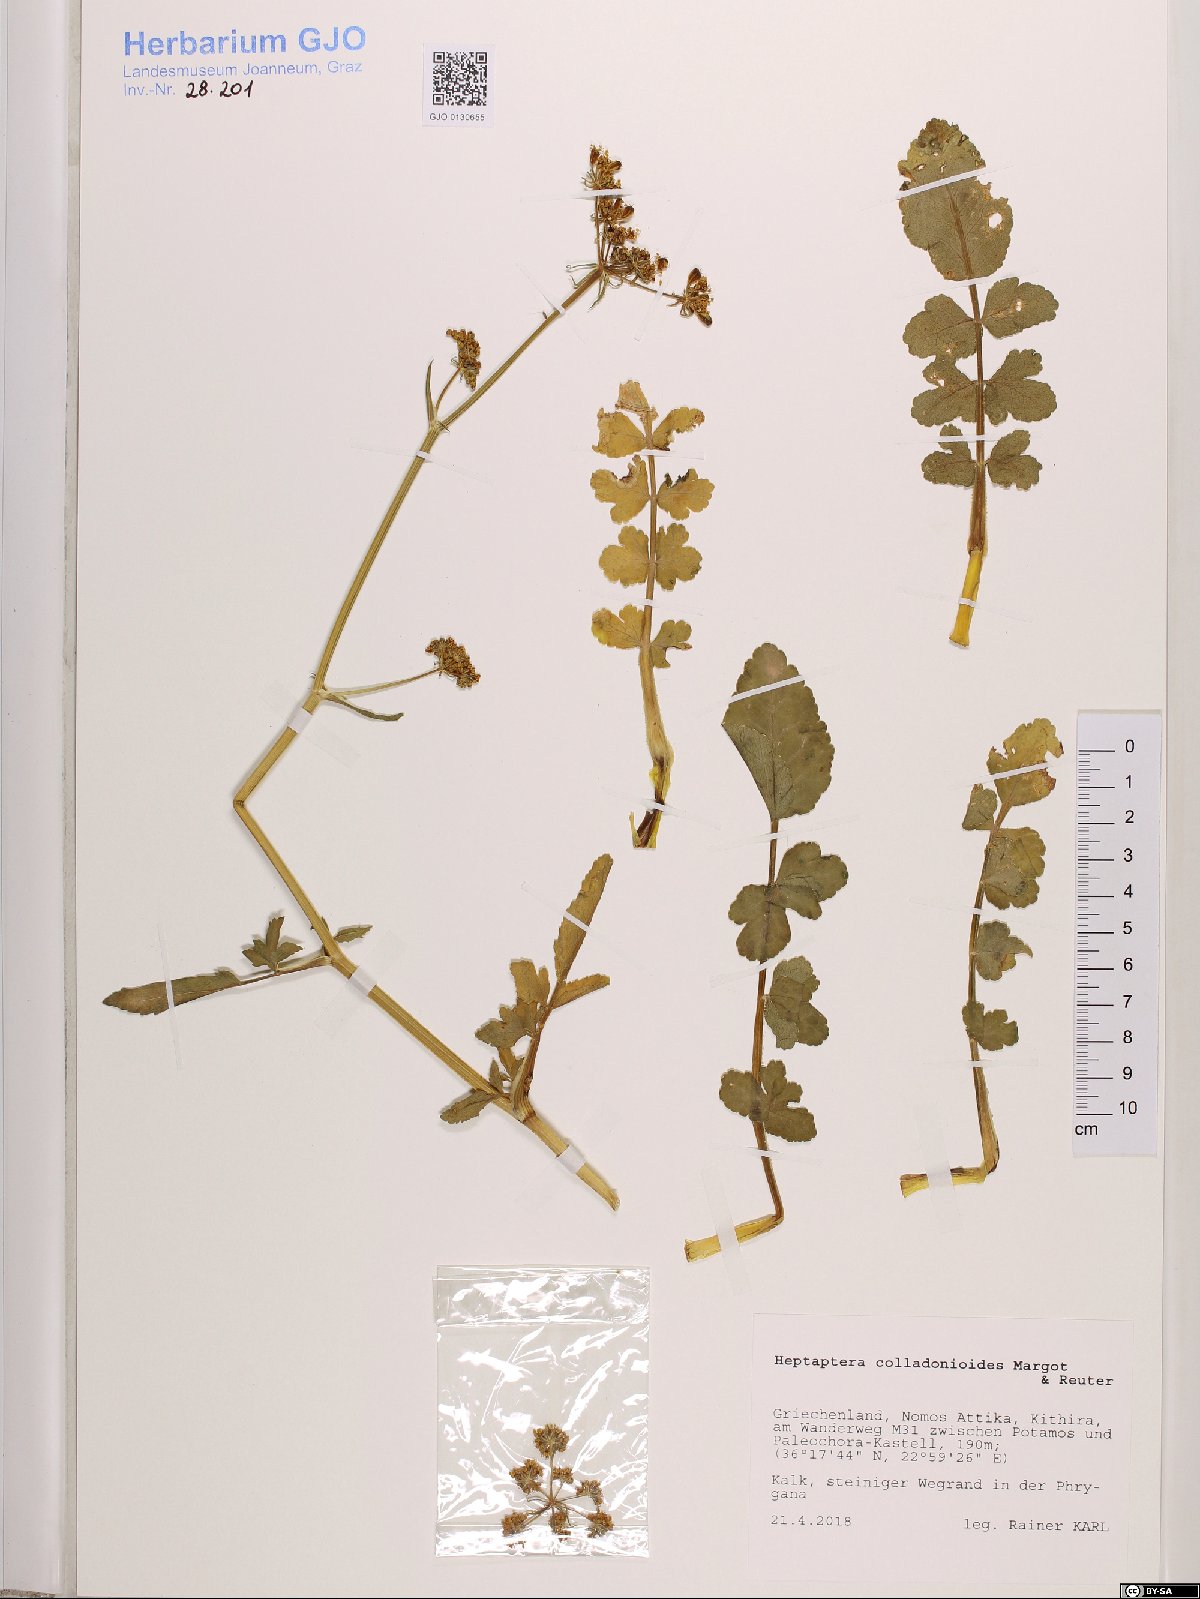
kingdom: Plantae
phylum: Tracheophyta
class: Magnoliopsida
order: Apiales
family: Apiaceae
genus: Heptaptera
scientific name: Heptaptera colladonioides
